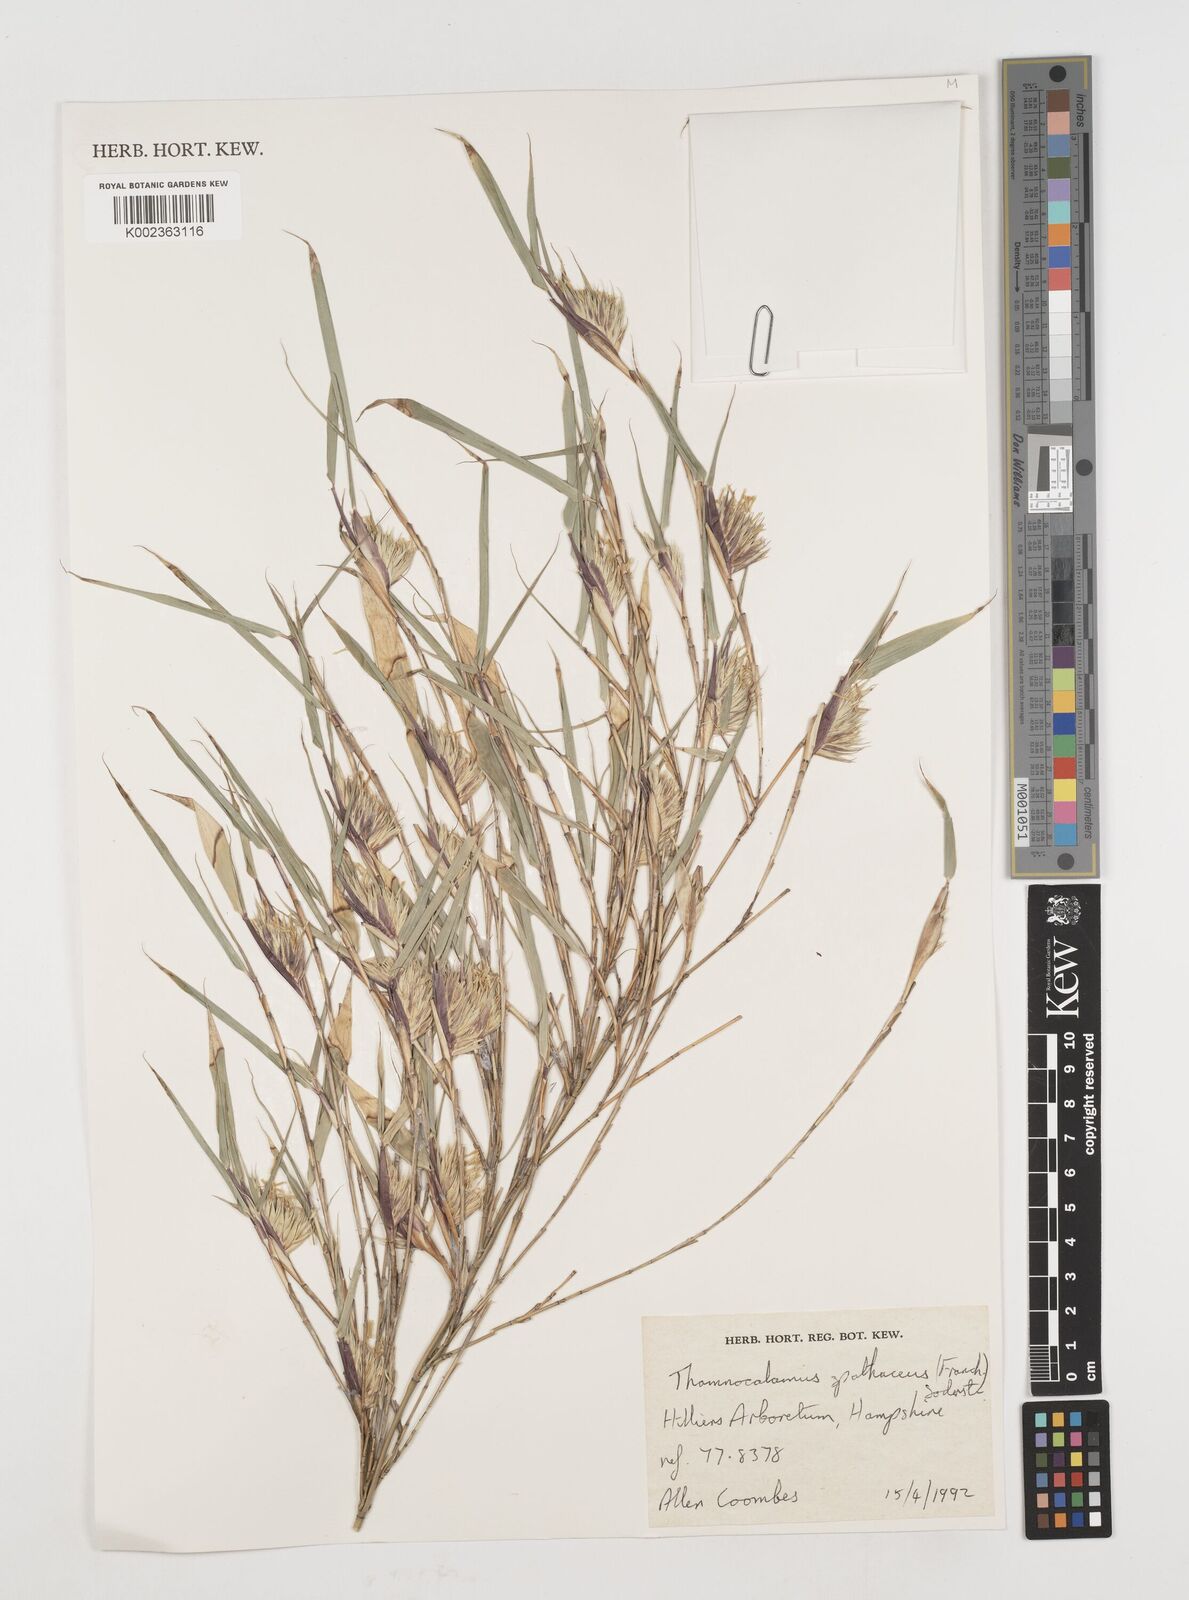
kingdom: Plantae
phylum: Tracheophyta
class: Liliopsida
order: Poales
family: Poaceae
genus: Fargesia
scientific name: Fargesia murielae
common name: Umbrella bamboo
